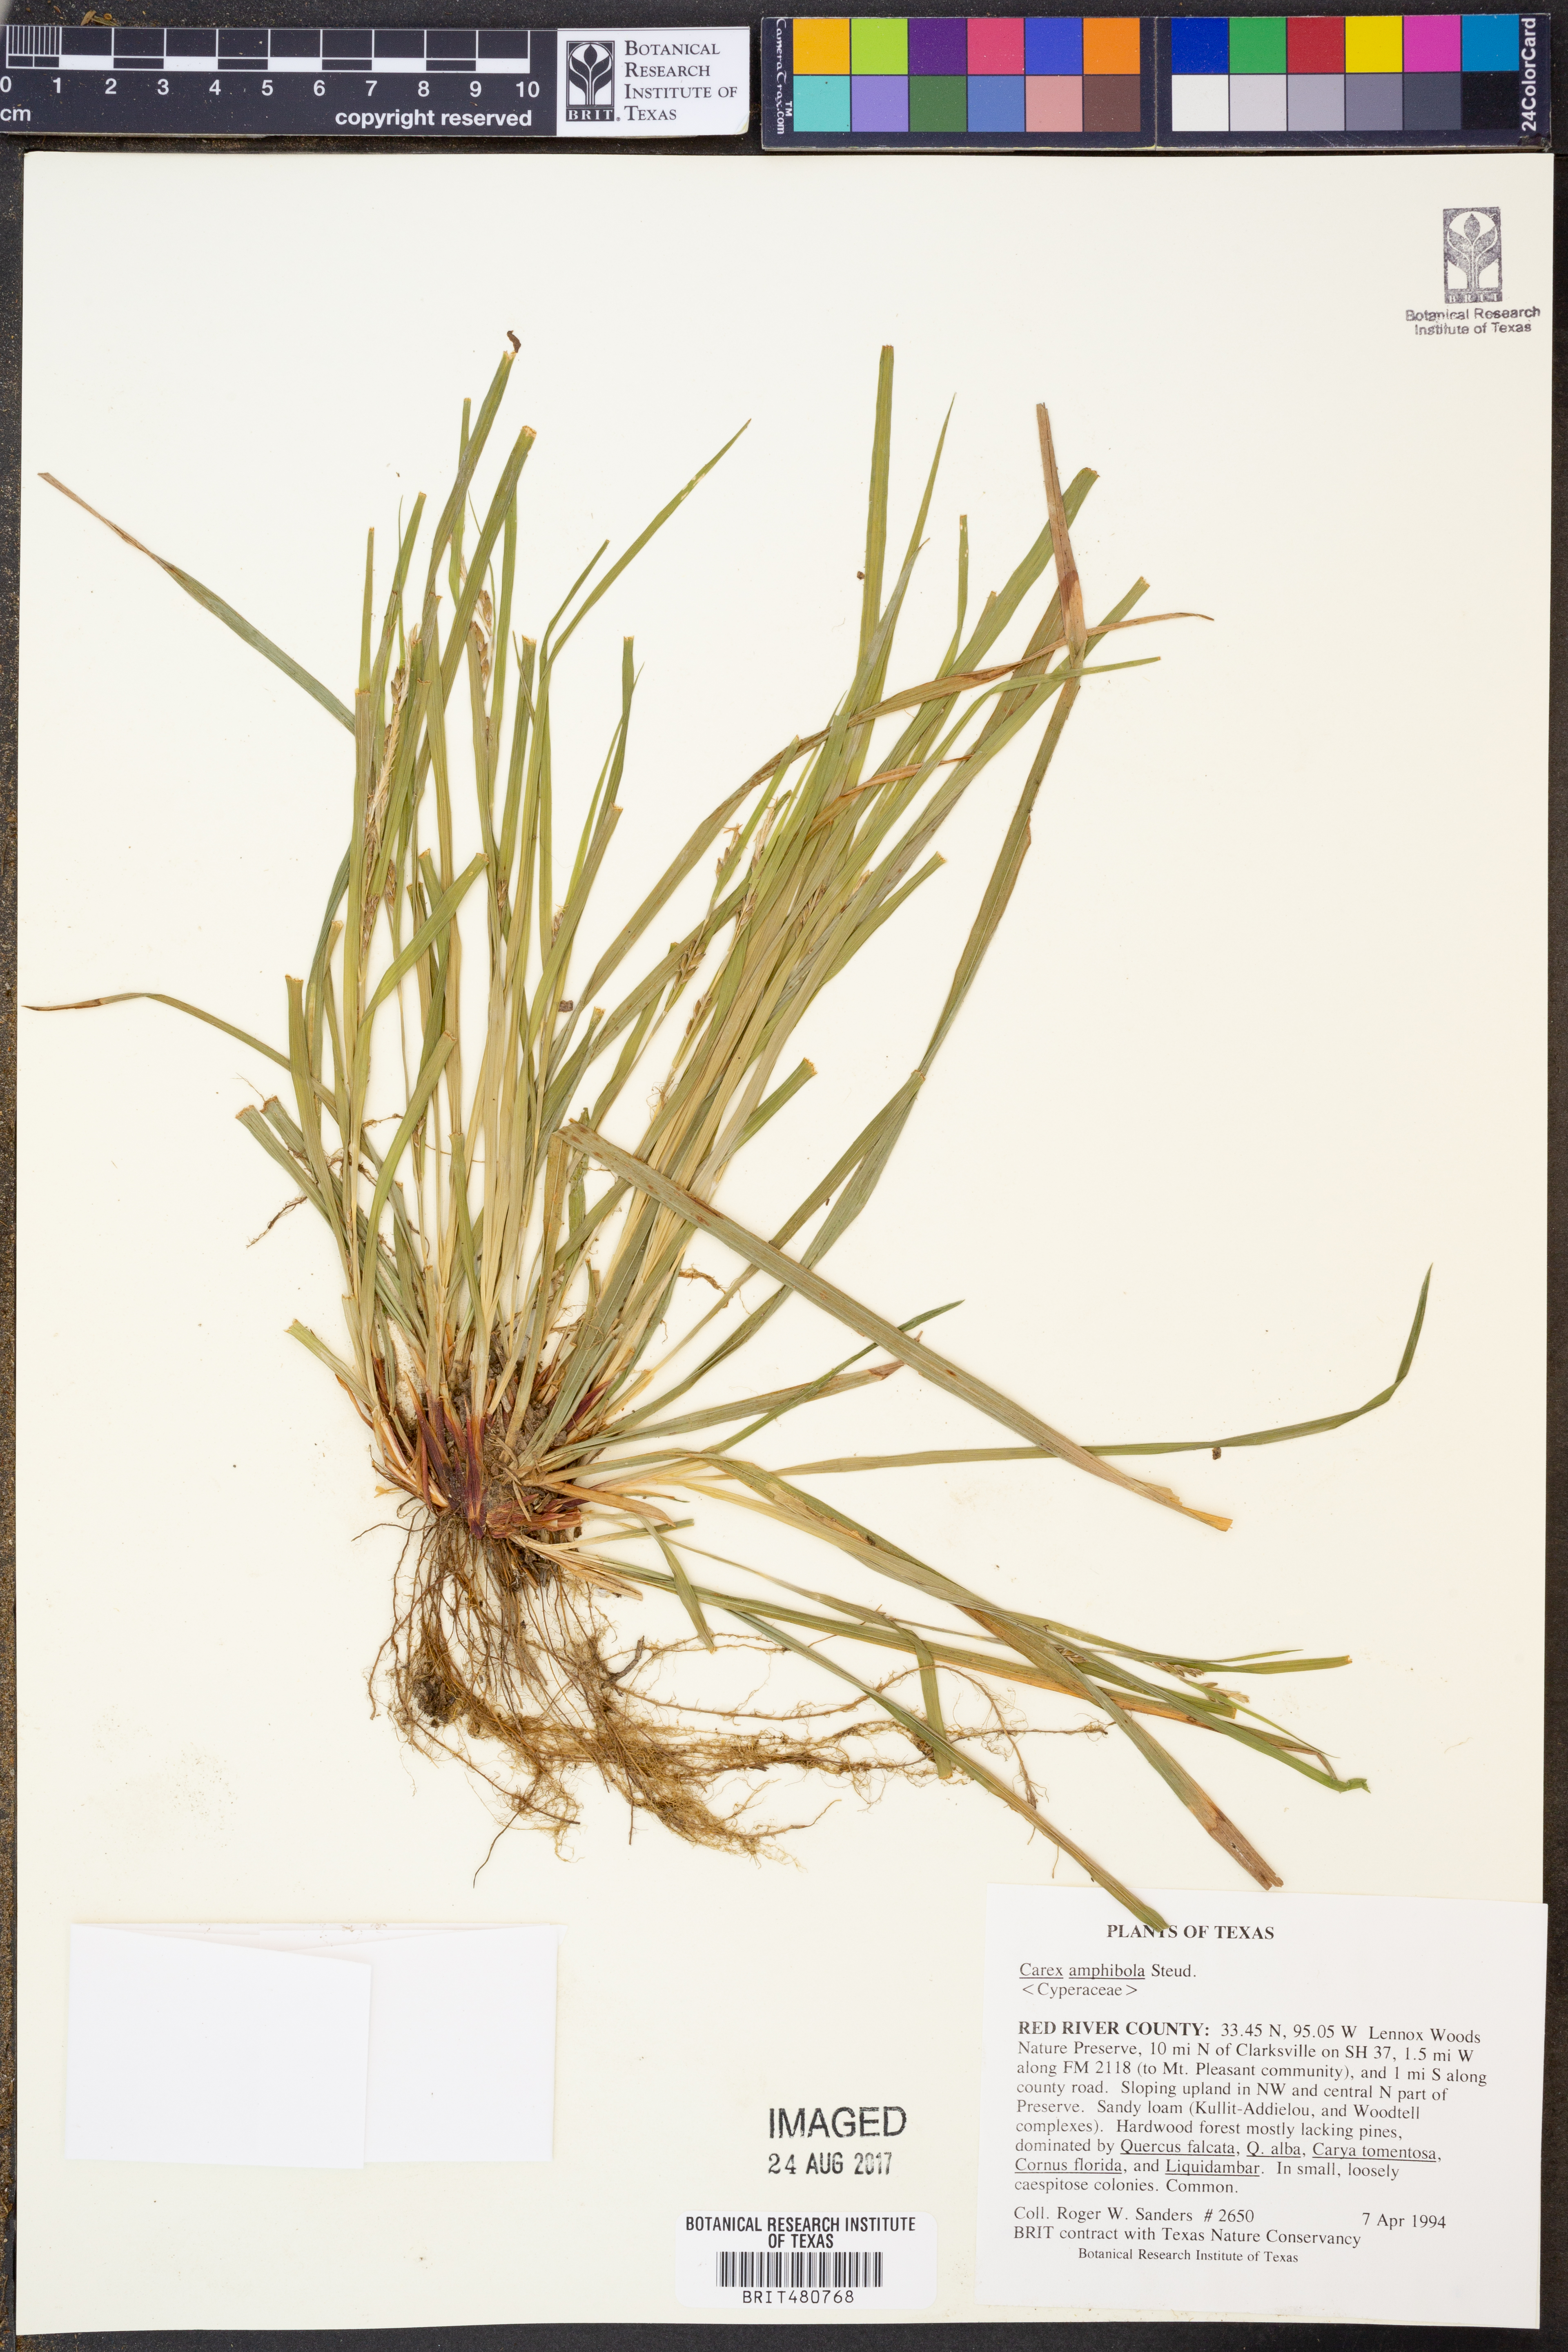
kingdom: Plantae
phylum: Tracheophyta
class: Liliopsida
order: Poales
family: Cyperaceae
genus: Carex
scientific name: Carex amphibola
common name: Amphibious sedge
